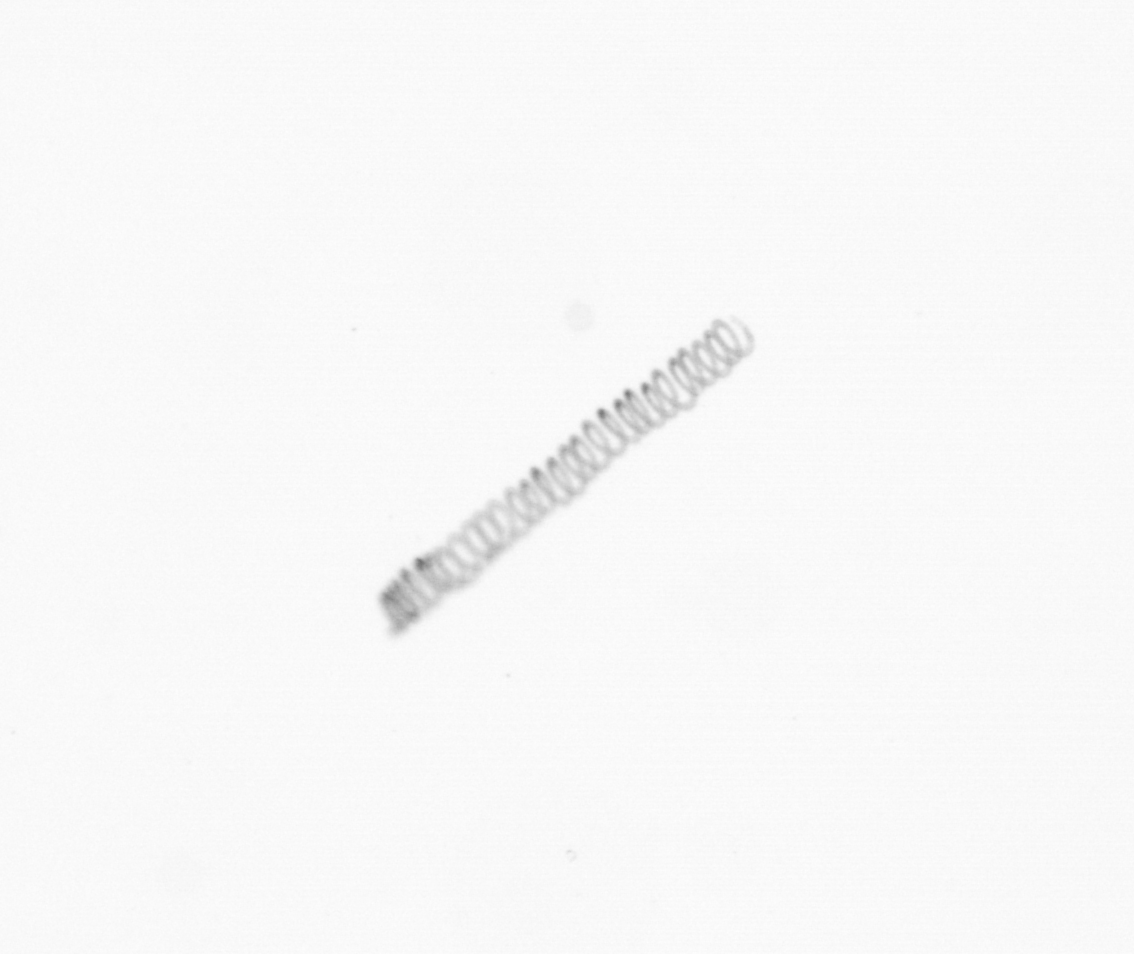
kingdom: Chromista
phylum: Ochrophyta
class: Bacillariophyceae
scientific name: Bacillariophyceae
